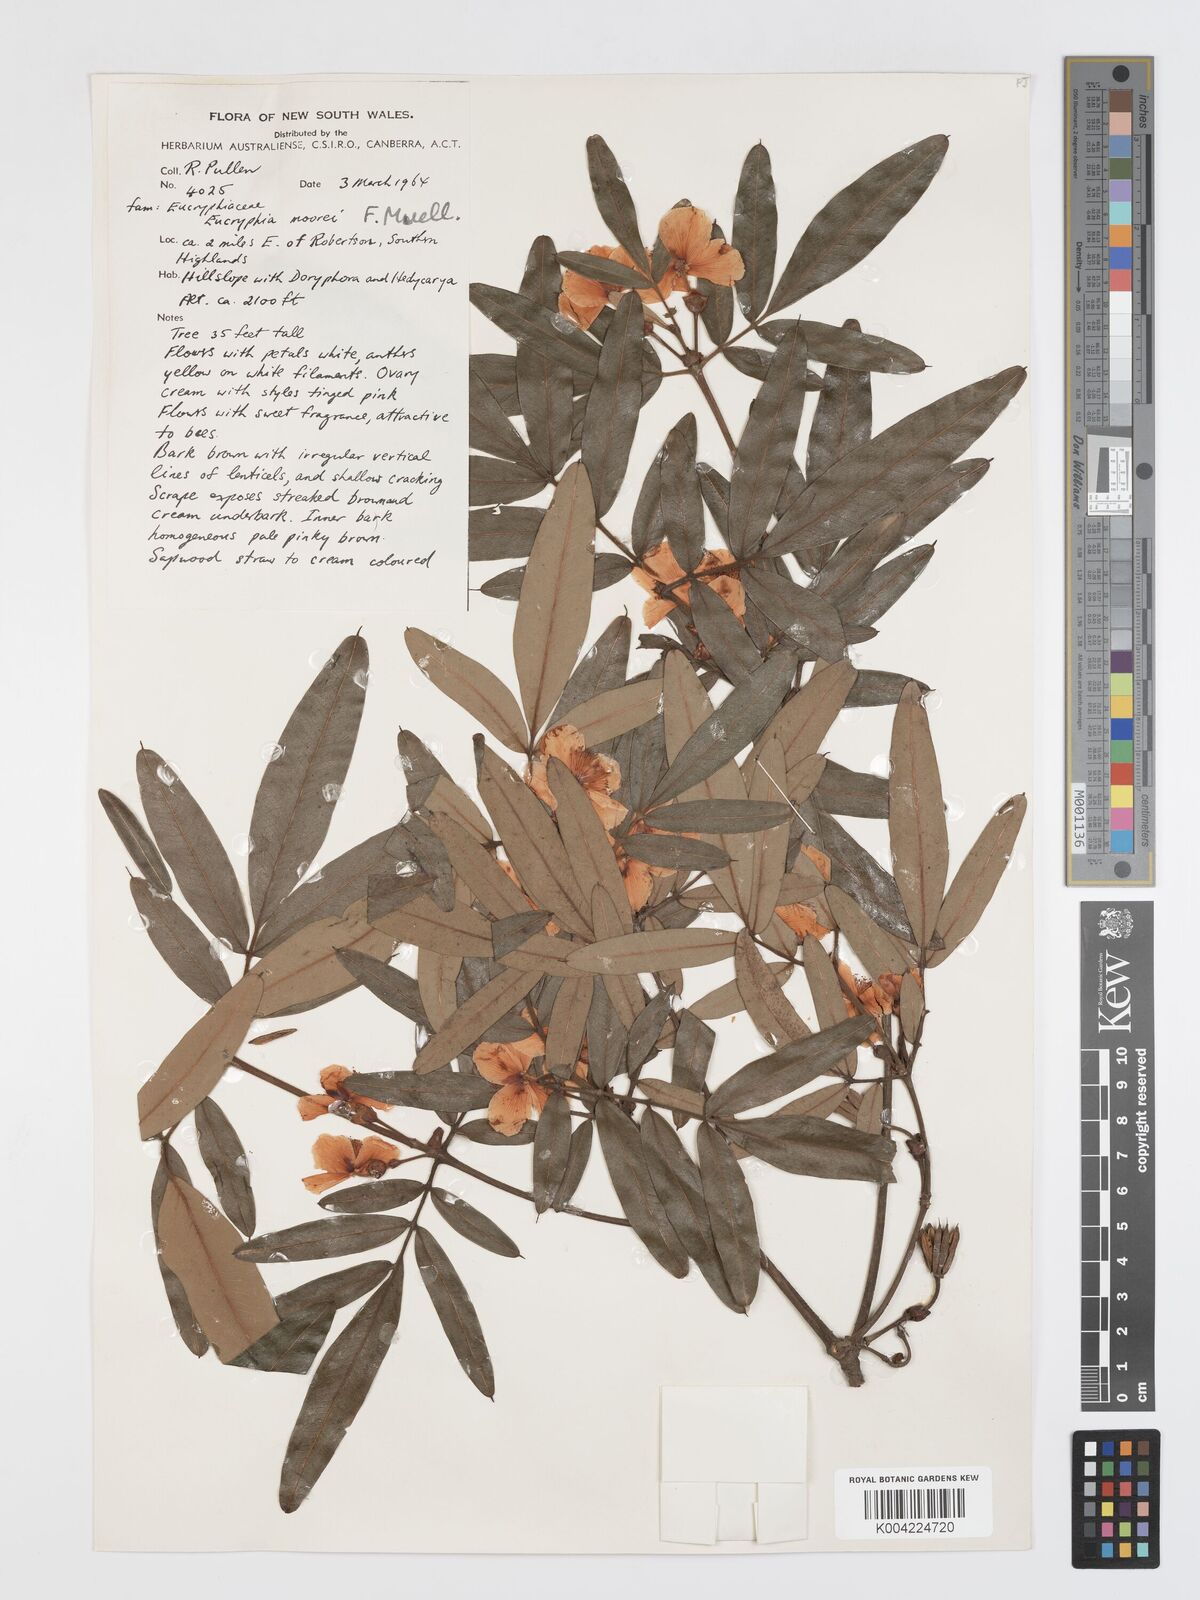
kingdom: Plantae
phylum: Tracheophyta
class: Magnoliopsida
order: Oxalidales
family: Cunoniaceae
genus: Eucryphia
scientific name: Eucryphia moorei
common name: Acacia-plum
